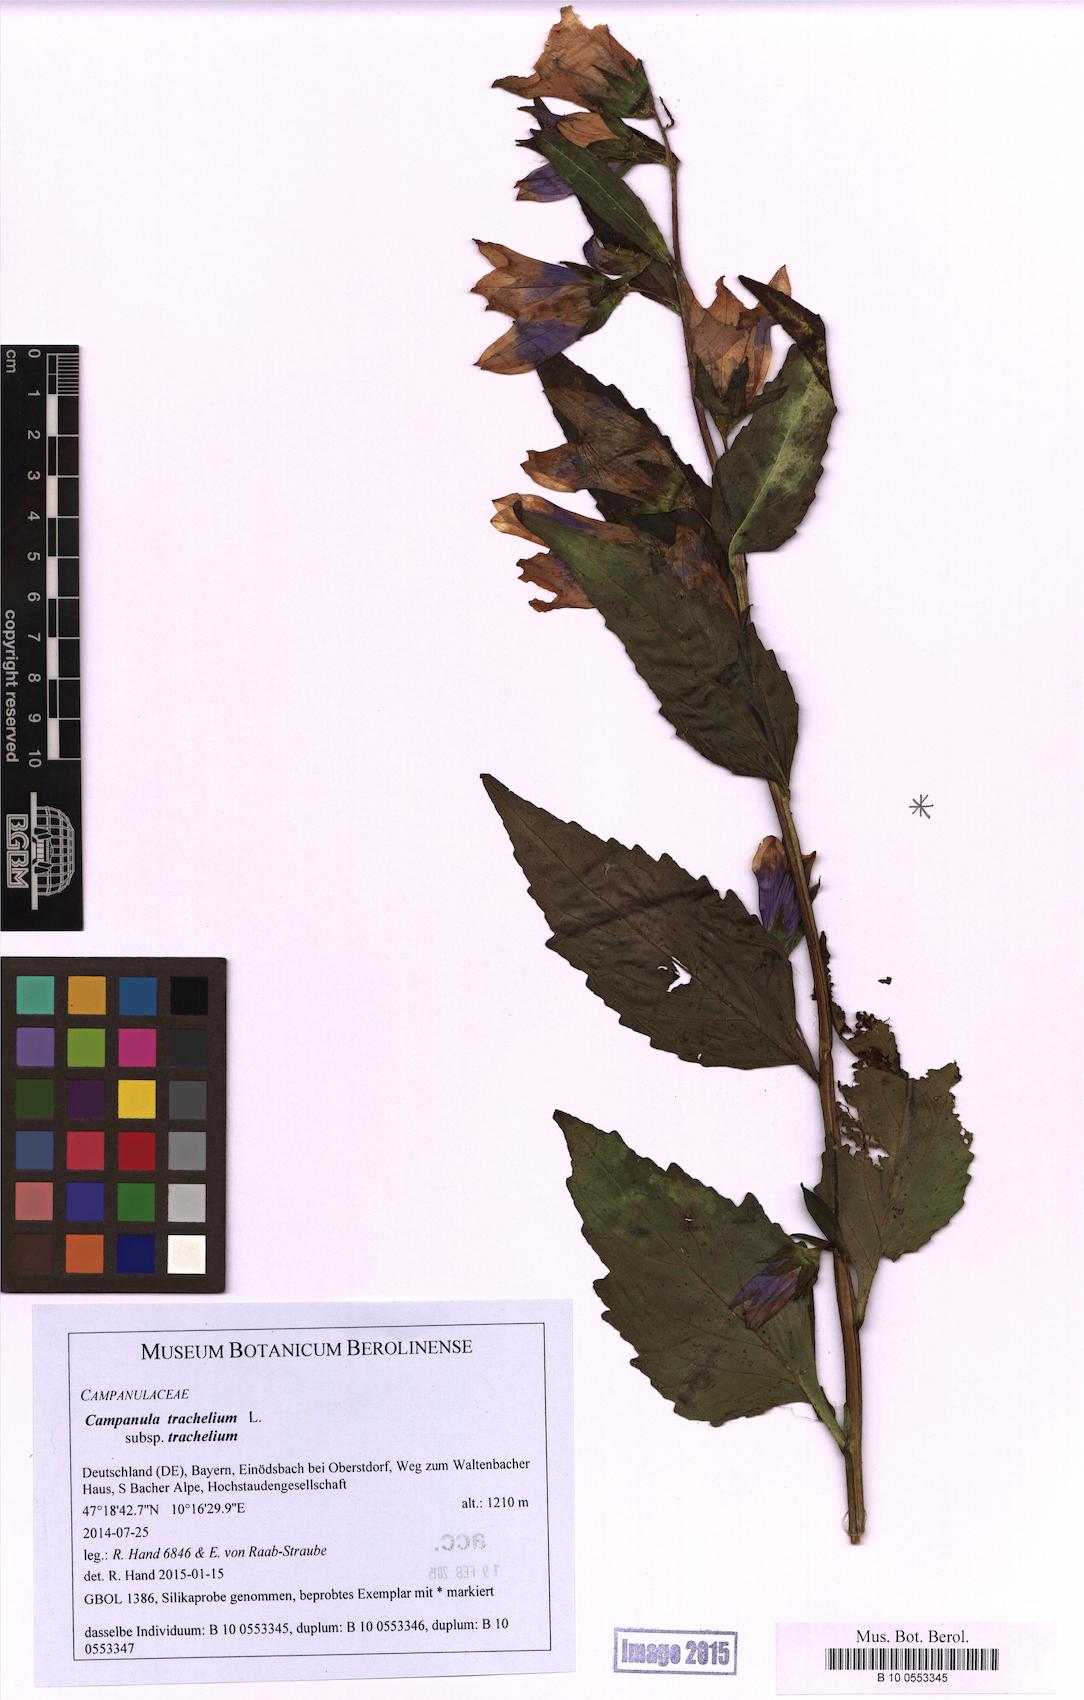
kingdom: Plantae
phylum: Tracheophyta
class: Magnoliopsida
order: Asterales
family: Campanulaceae
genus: Campanula
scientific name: Campanula trachelium
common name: Nettle-leaved bellflower
